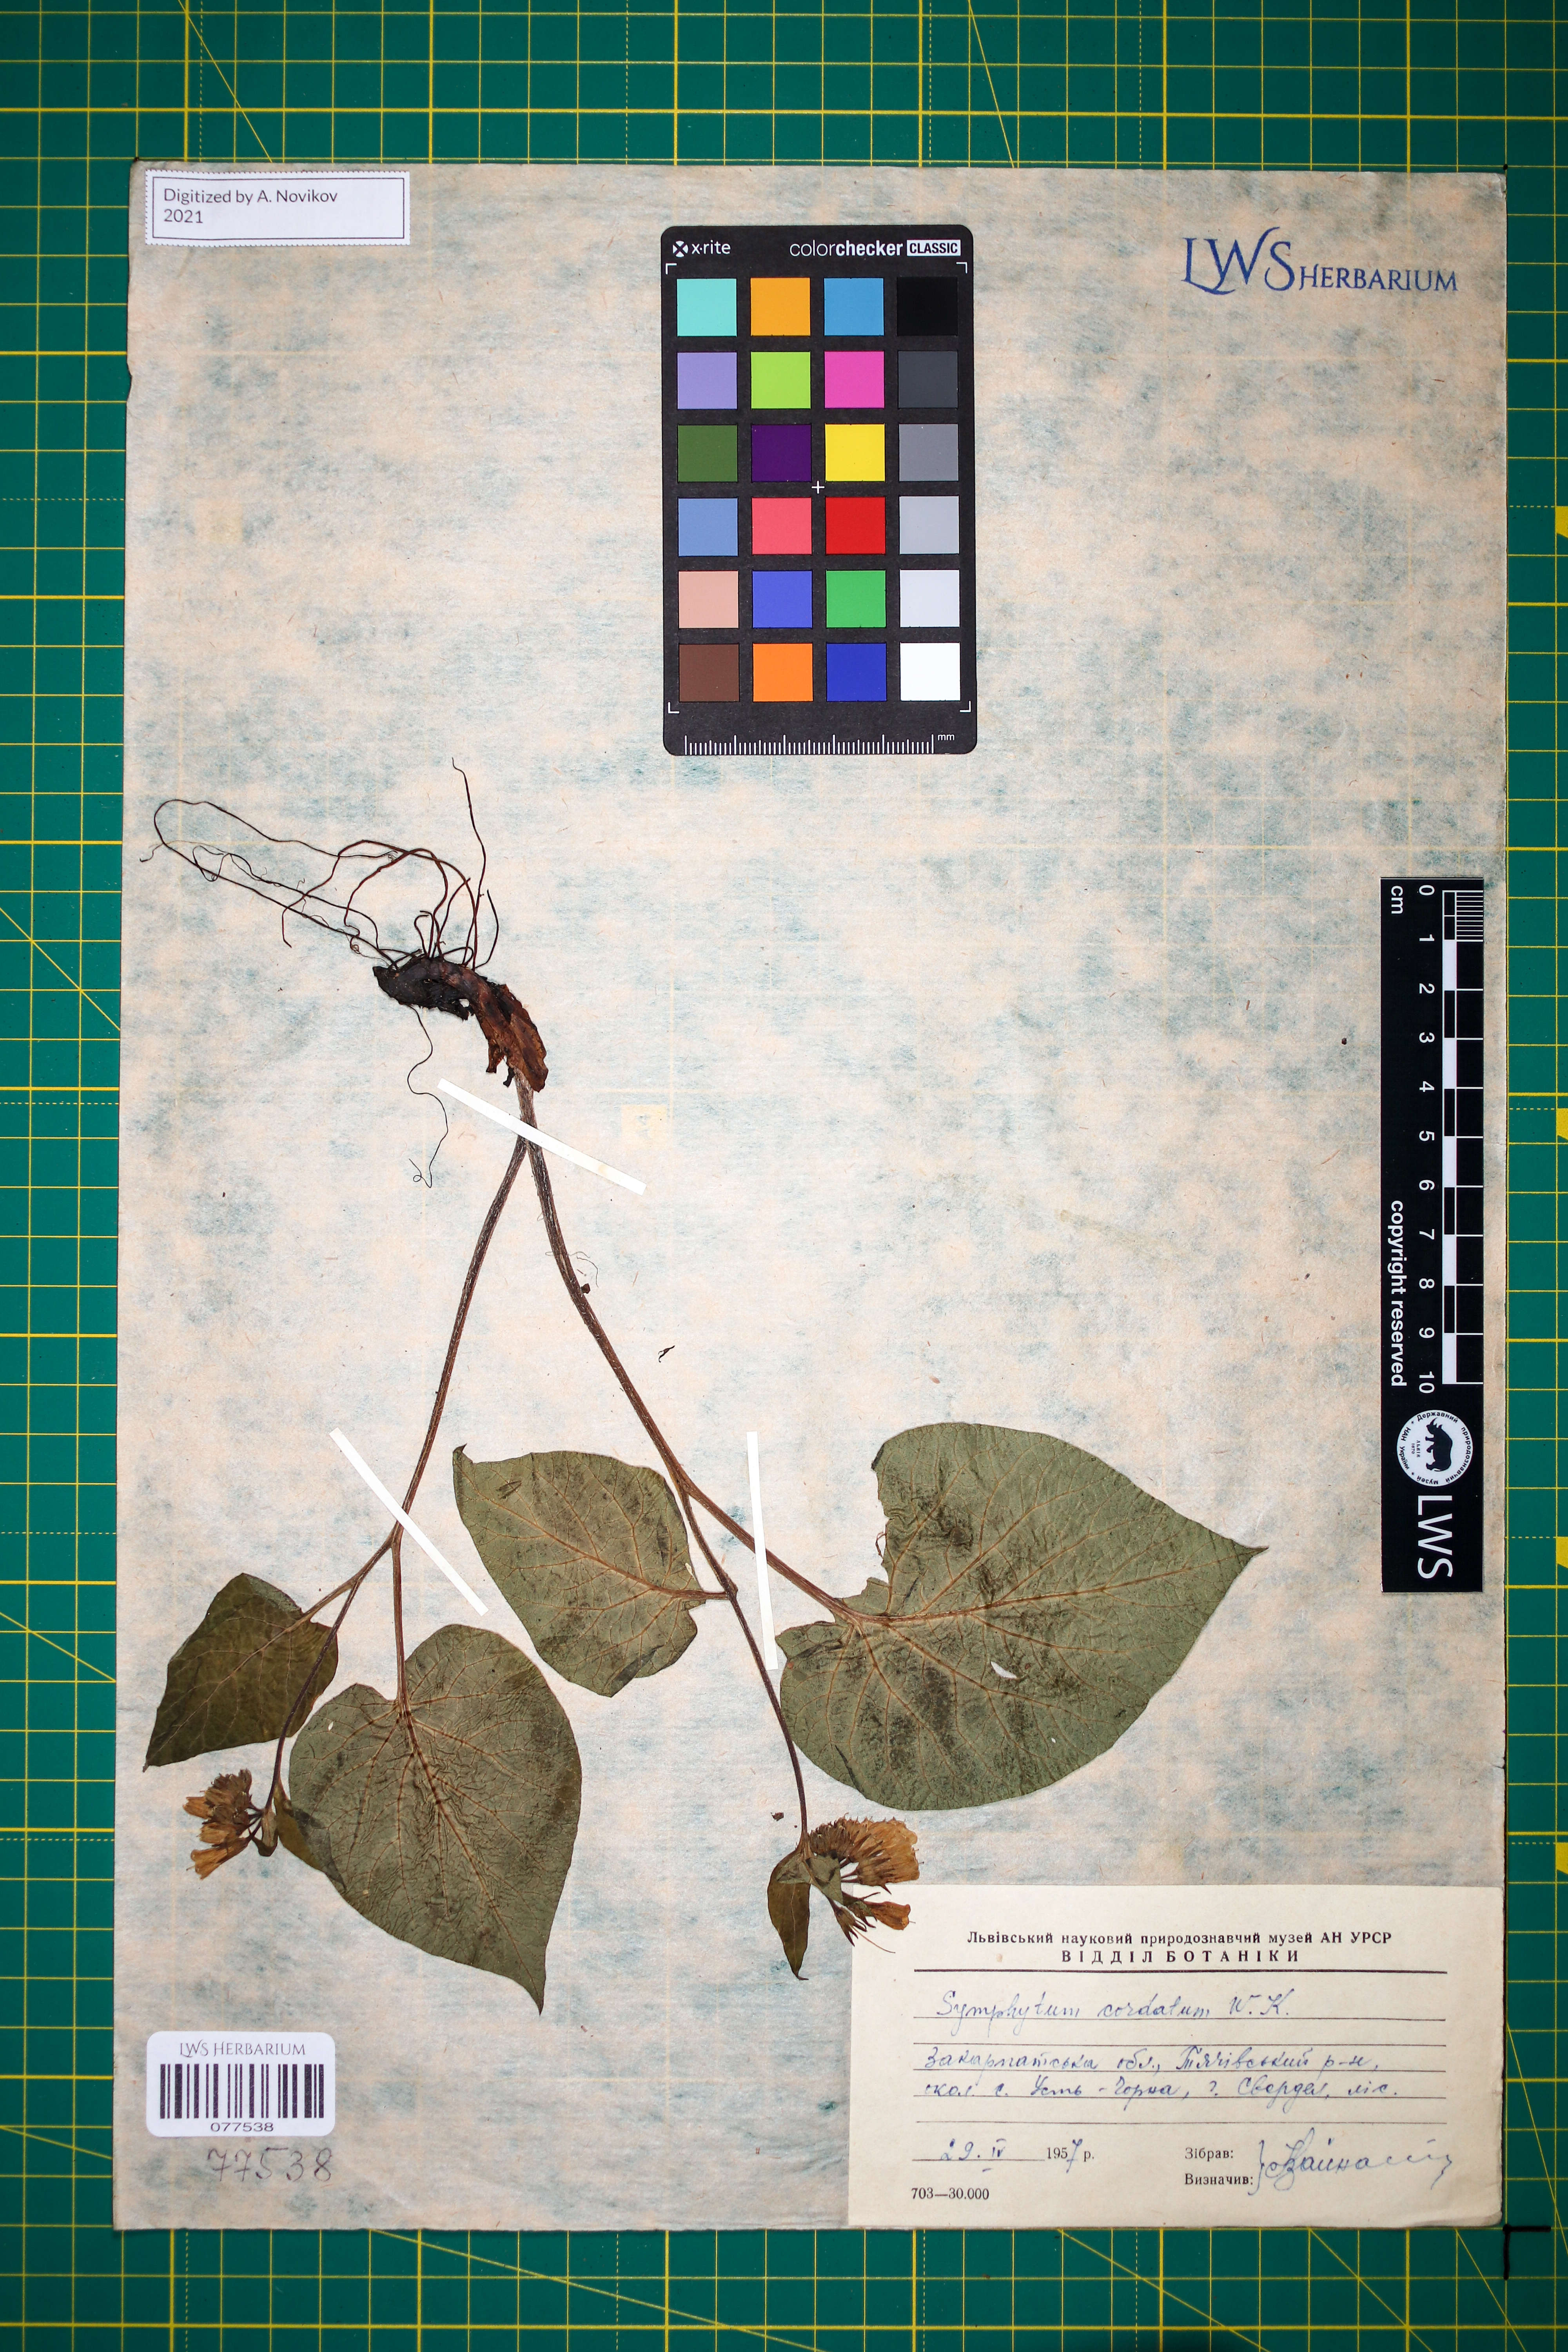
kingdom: Plantae
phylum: Tracheophyta
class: Magnoliopsida
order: Boraginales
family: Boraginaceae
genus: Symphytum
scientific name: Symphytum cordatum
